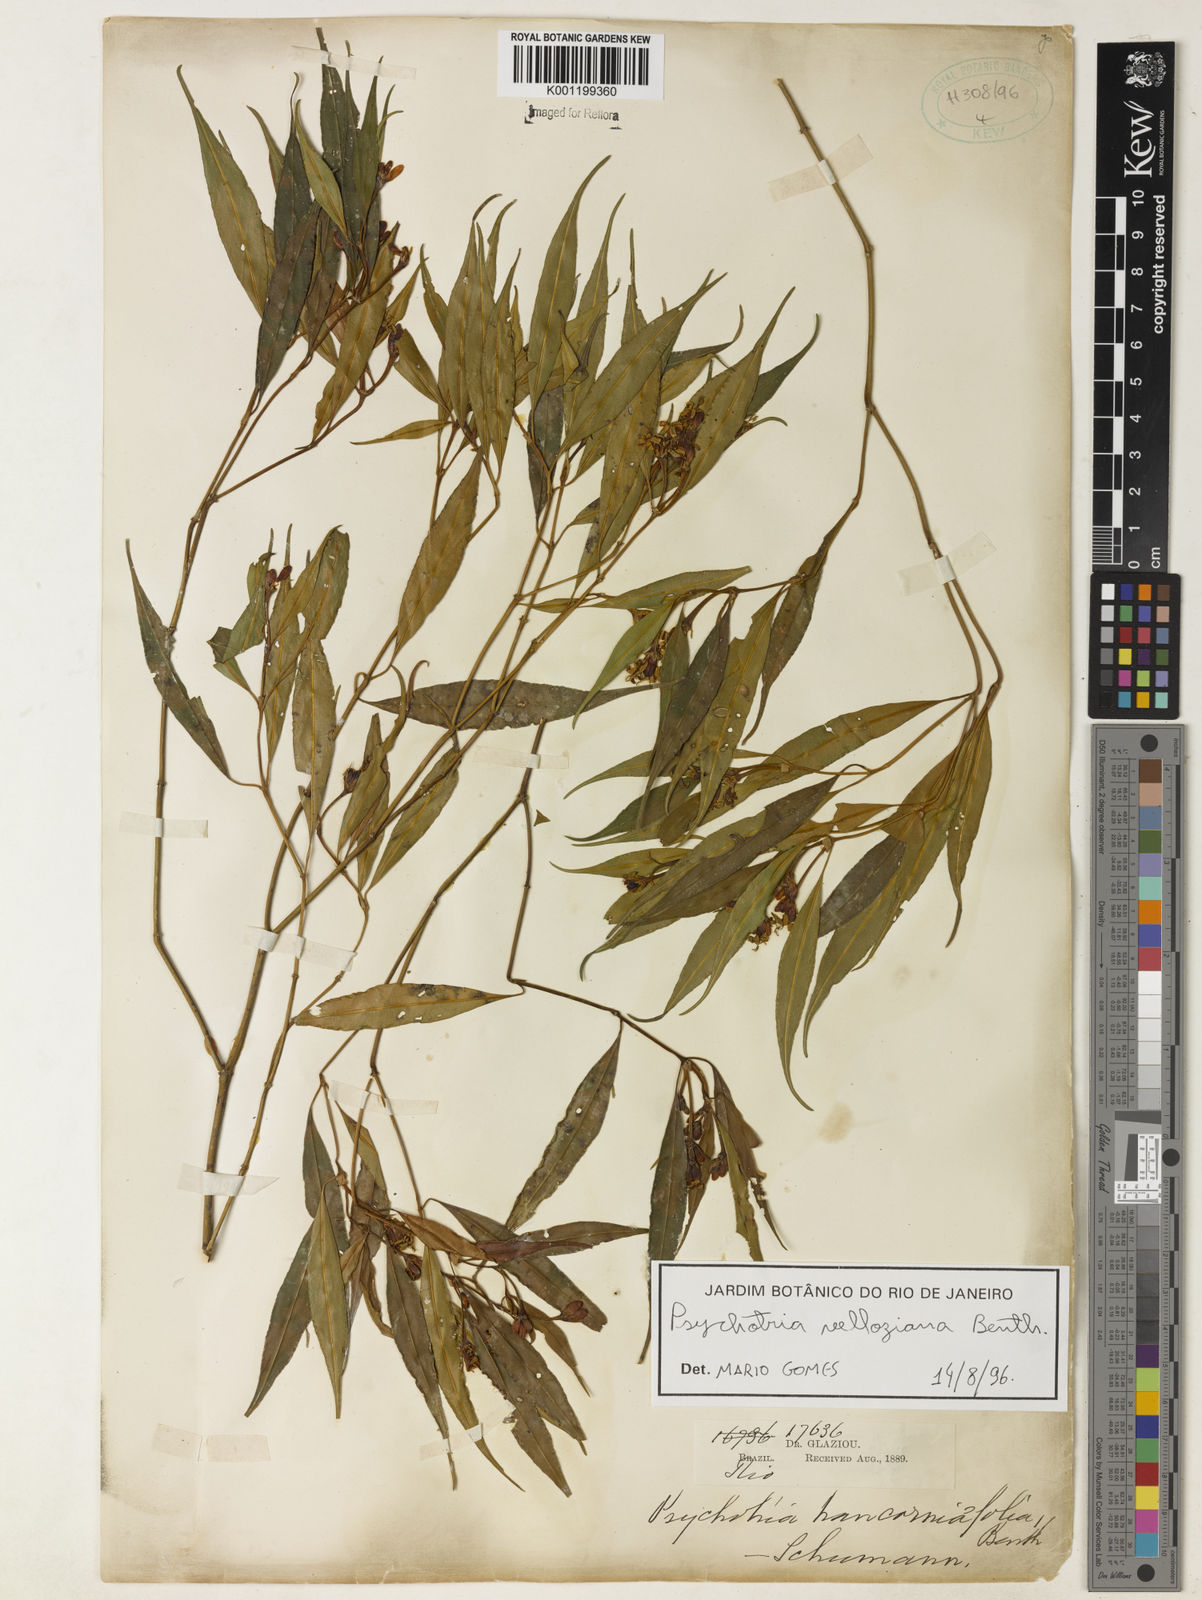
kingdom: Plantae
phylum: Tracheophyta
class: Magnoliopsida
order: Gentianales
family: Rubiaceae
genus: Palicourea
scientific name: Palicourea sessilis
